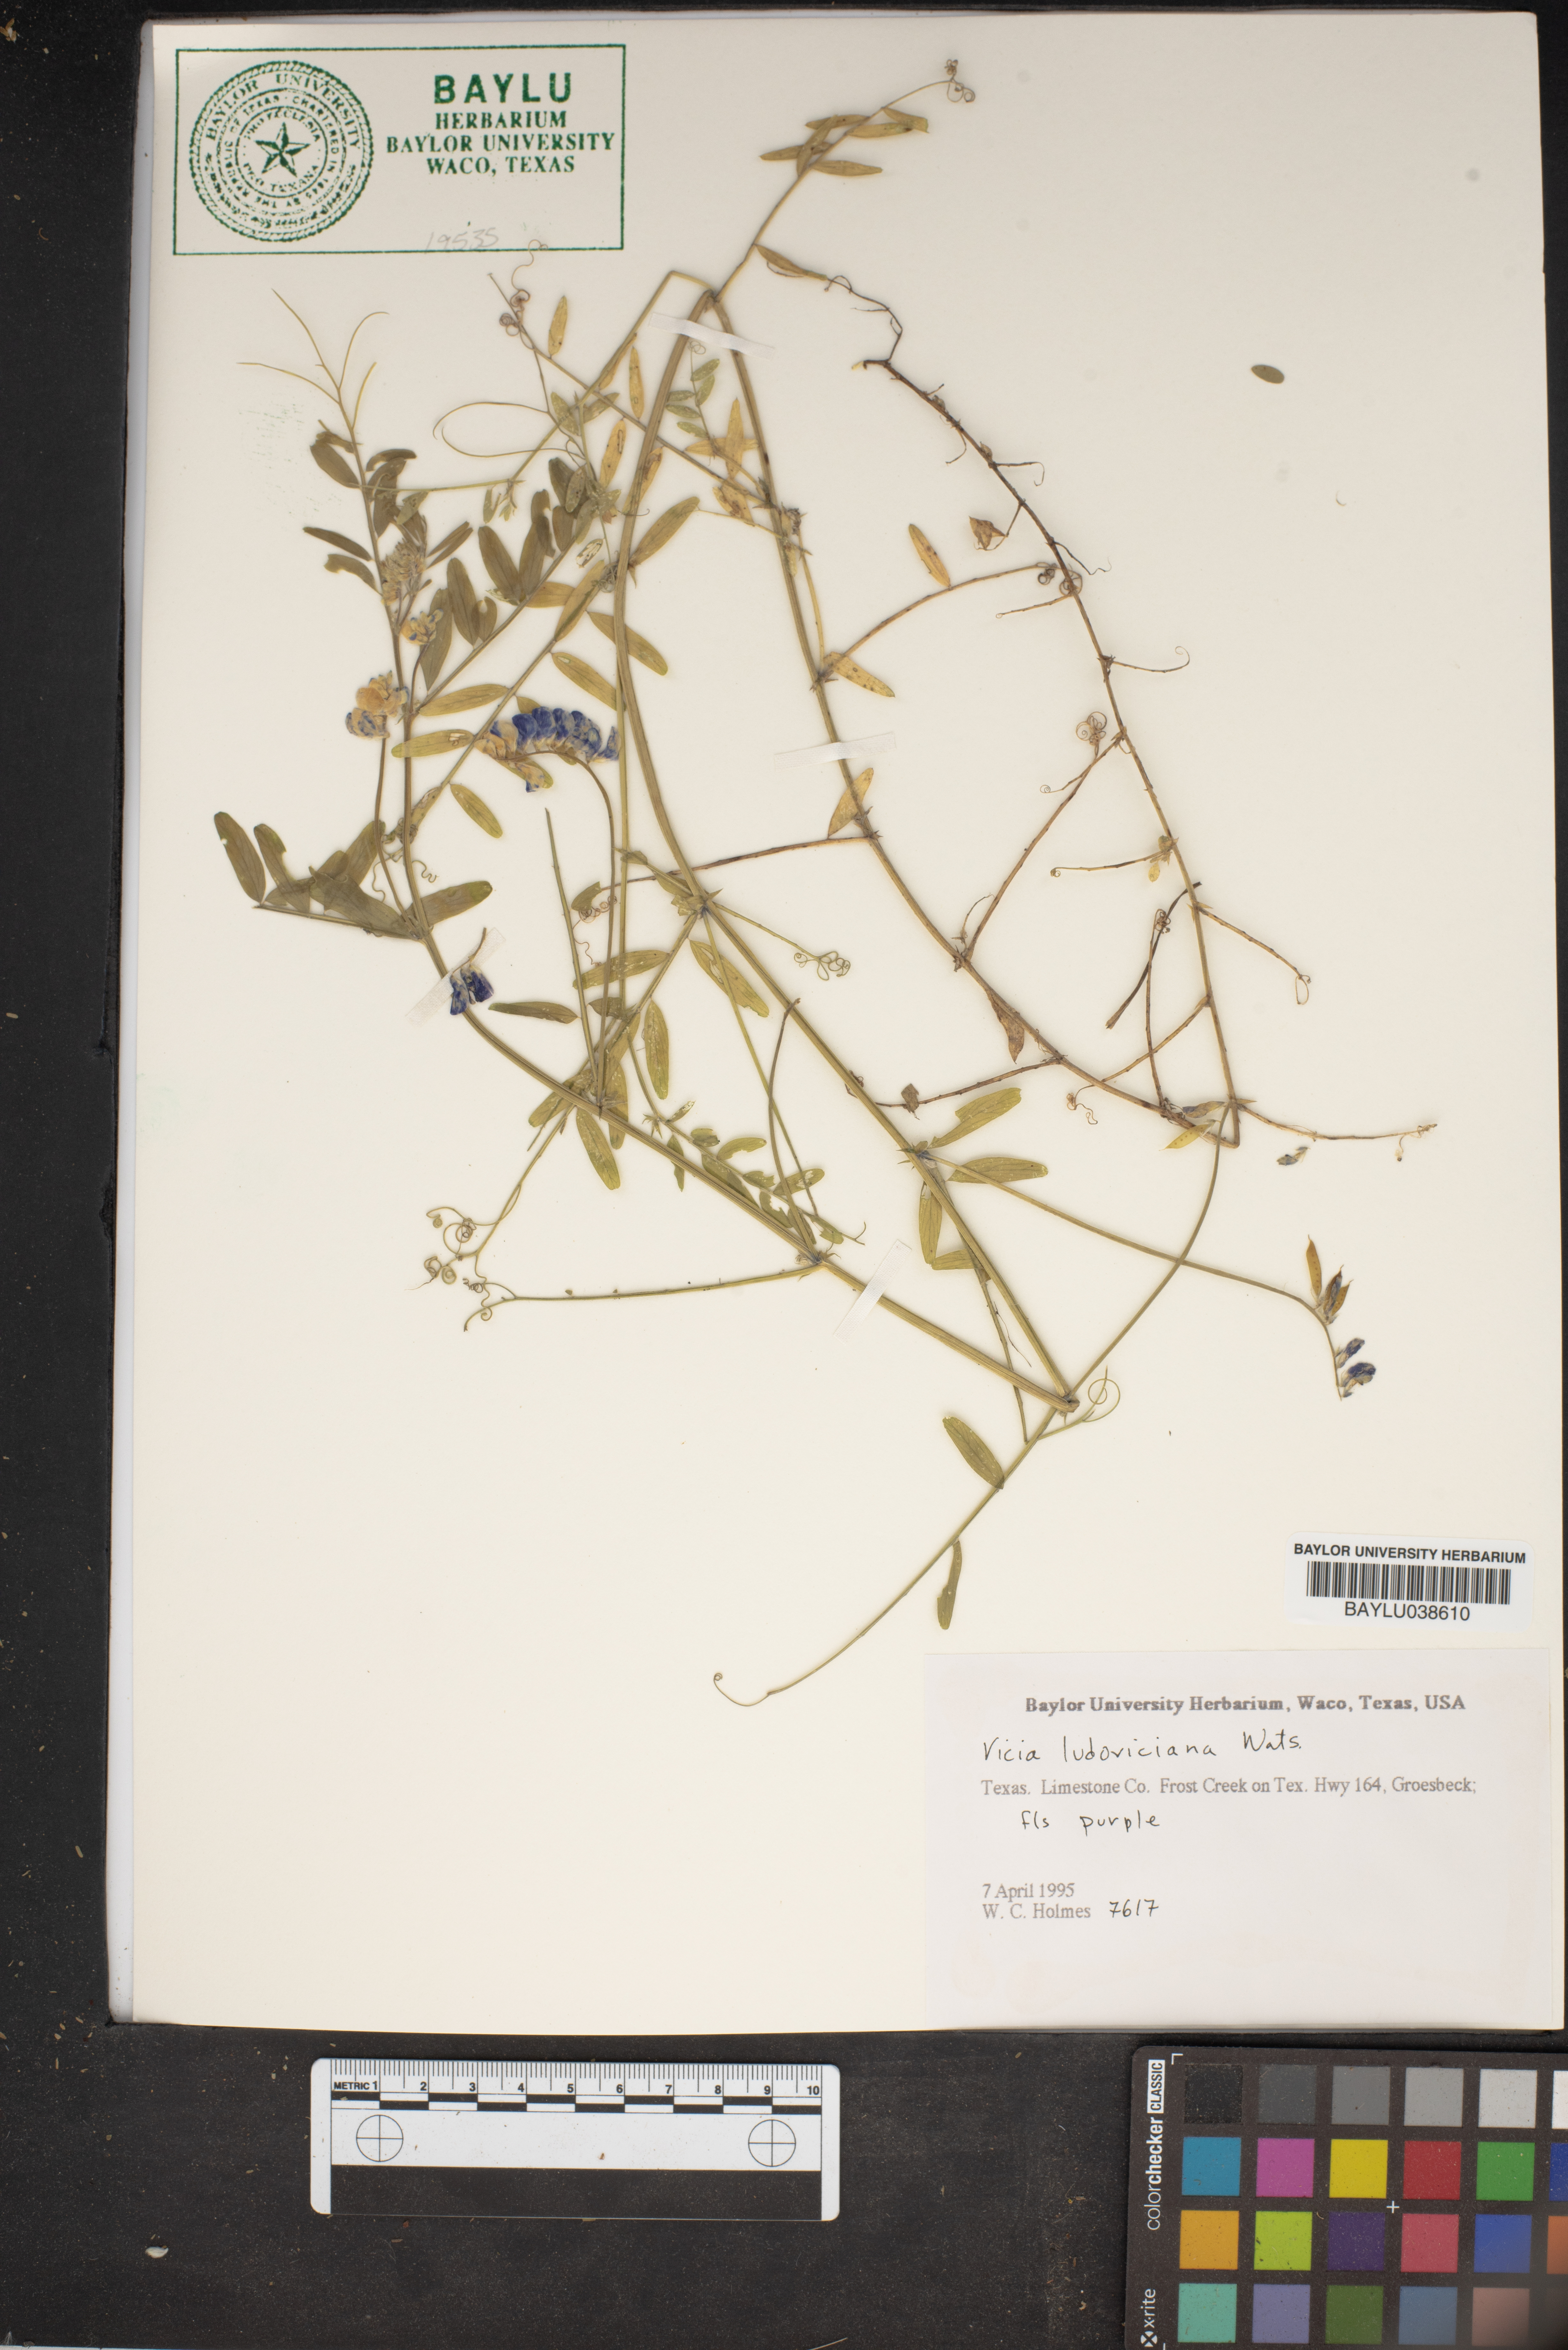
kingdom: Plantae
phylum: Tracheophyta
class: Magnoliopsida
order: Fabales
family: Fabaceae
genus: Vicia
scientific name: Vicia ludoviciana
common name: Louisiana vetch
